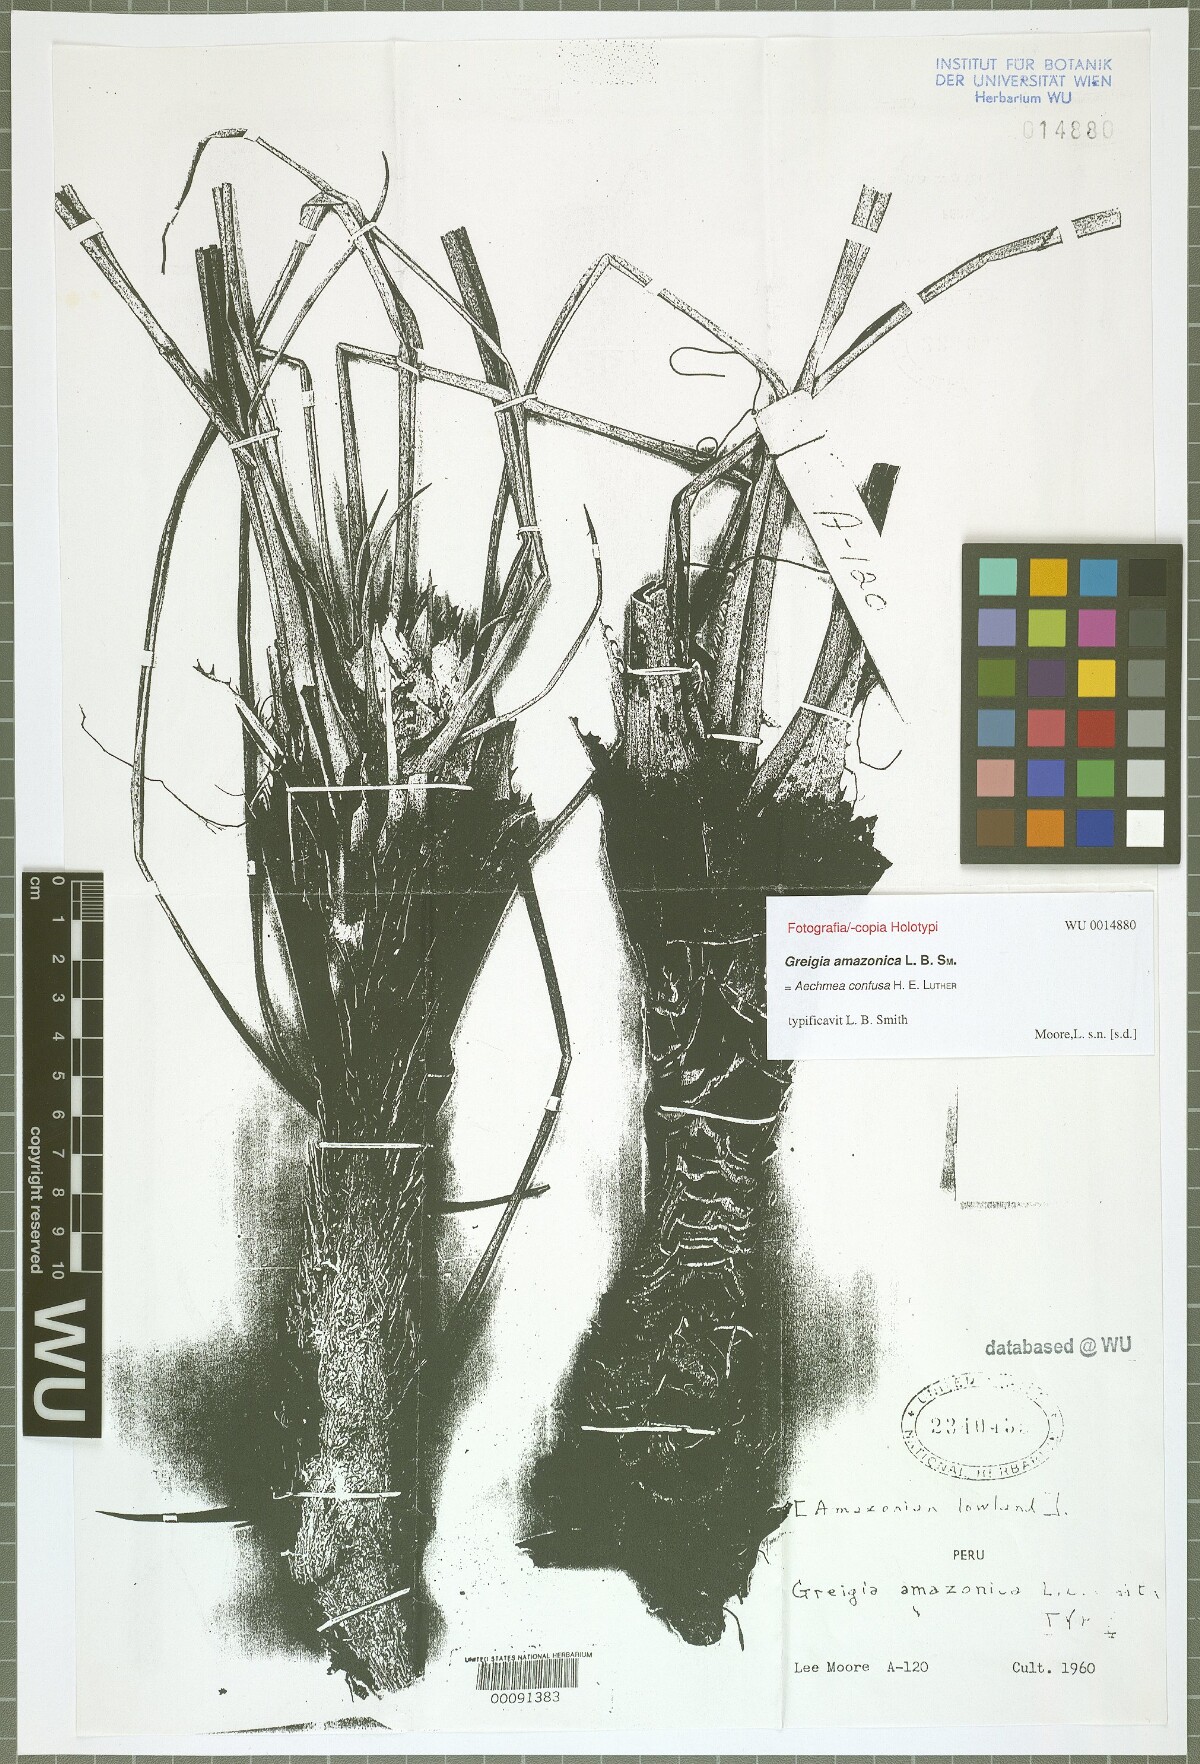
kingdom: Plantae
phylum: Tracheophyta
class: Liliopsida
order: Poales
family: Bromeliaceae
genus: Aechmea
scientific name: Aechmea confusa
